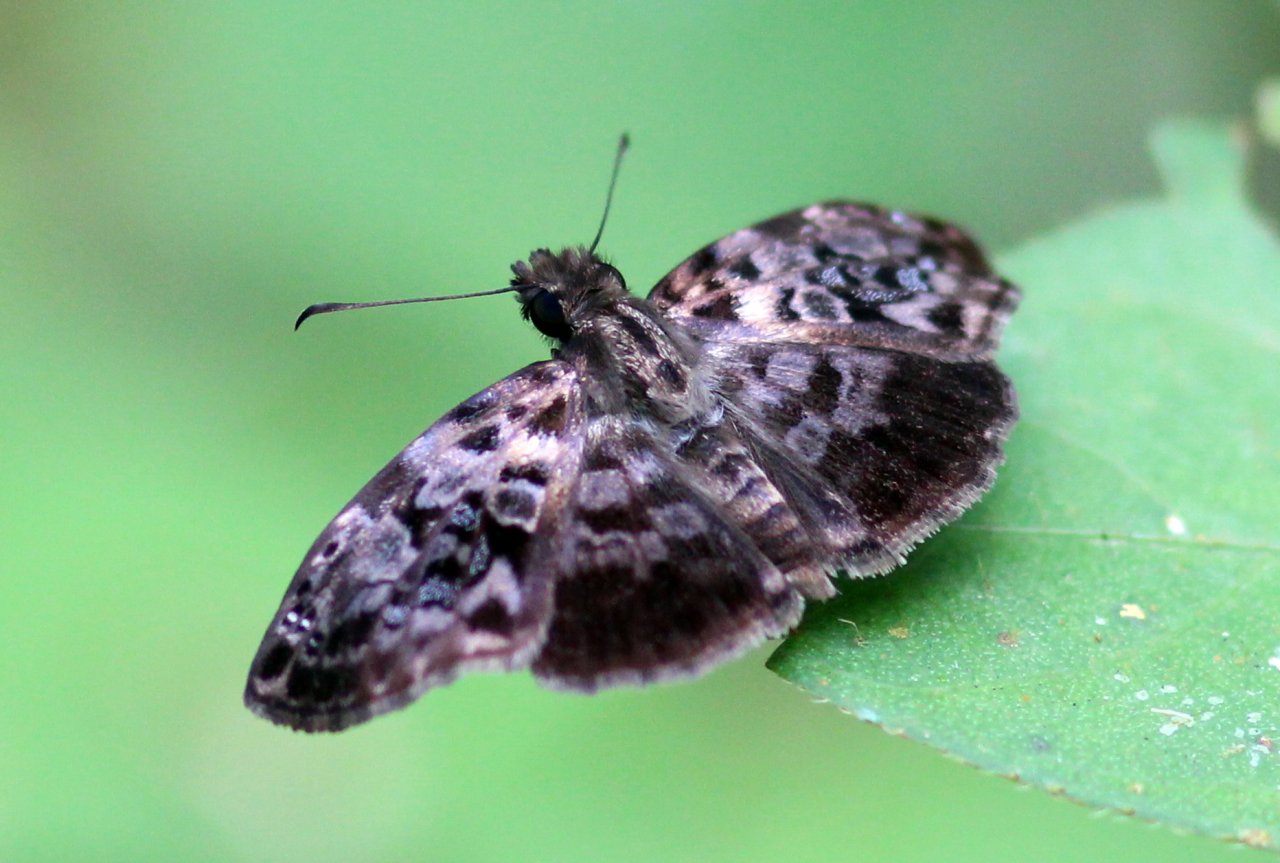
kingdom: Animalia
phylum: Arthropoda
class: Insecta
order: Lepidoptera
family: Hesperiidae
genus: Gorgythion
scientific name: Gorgythion begga
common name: Variegated Skipper
